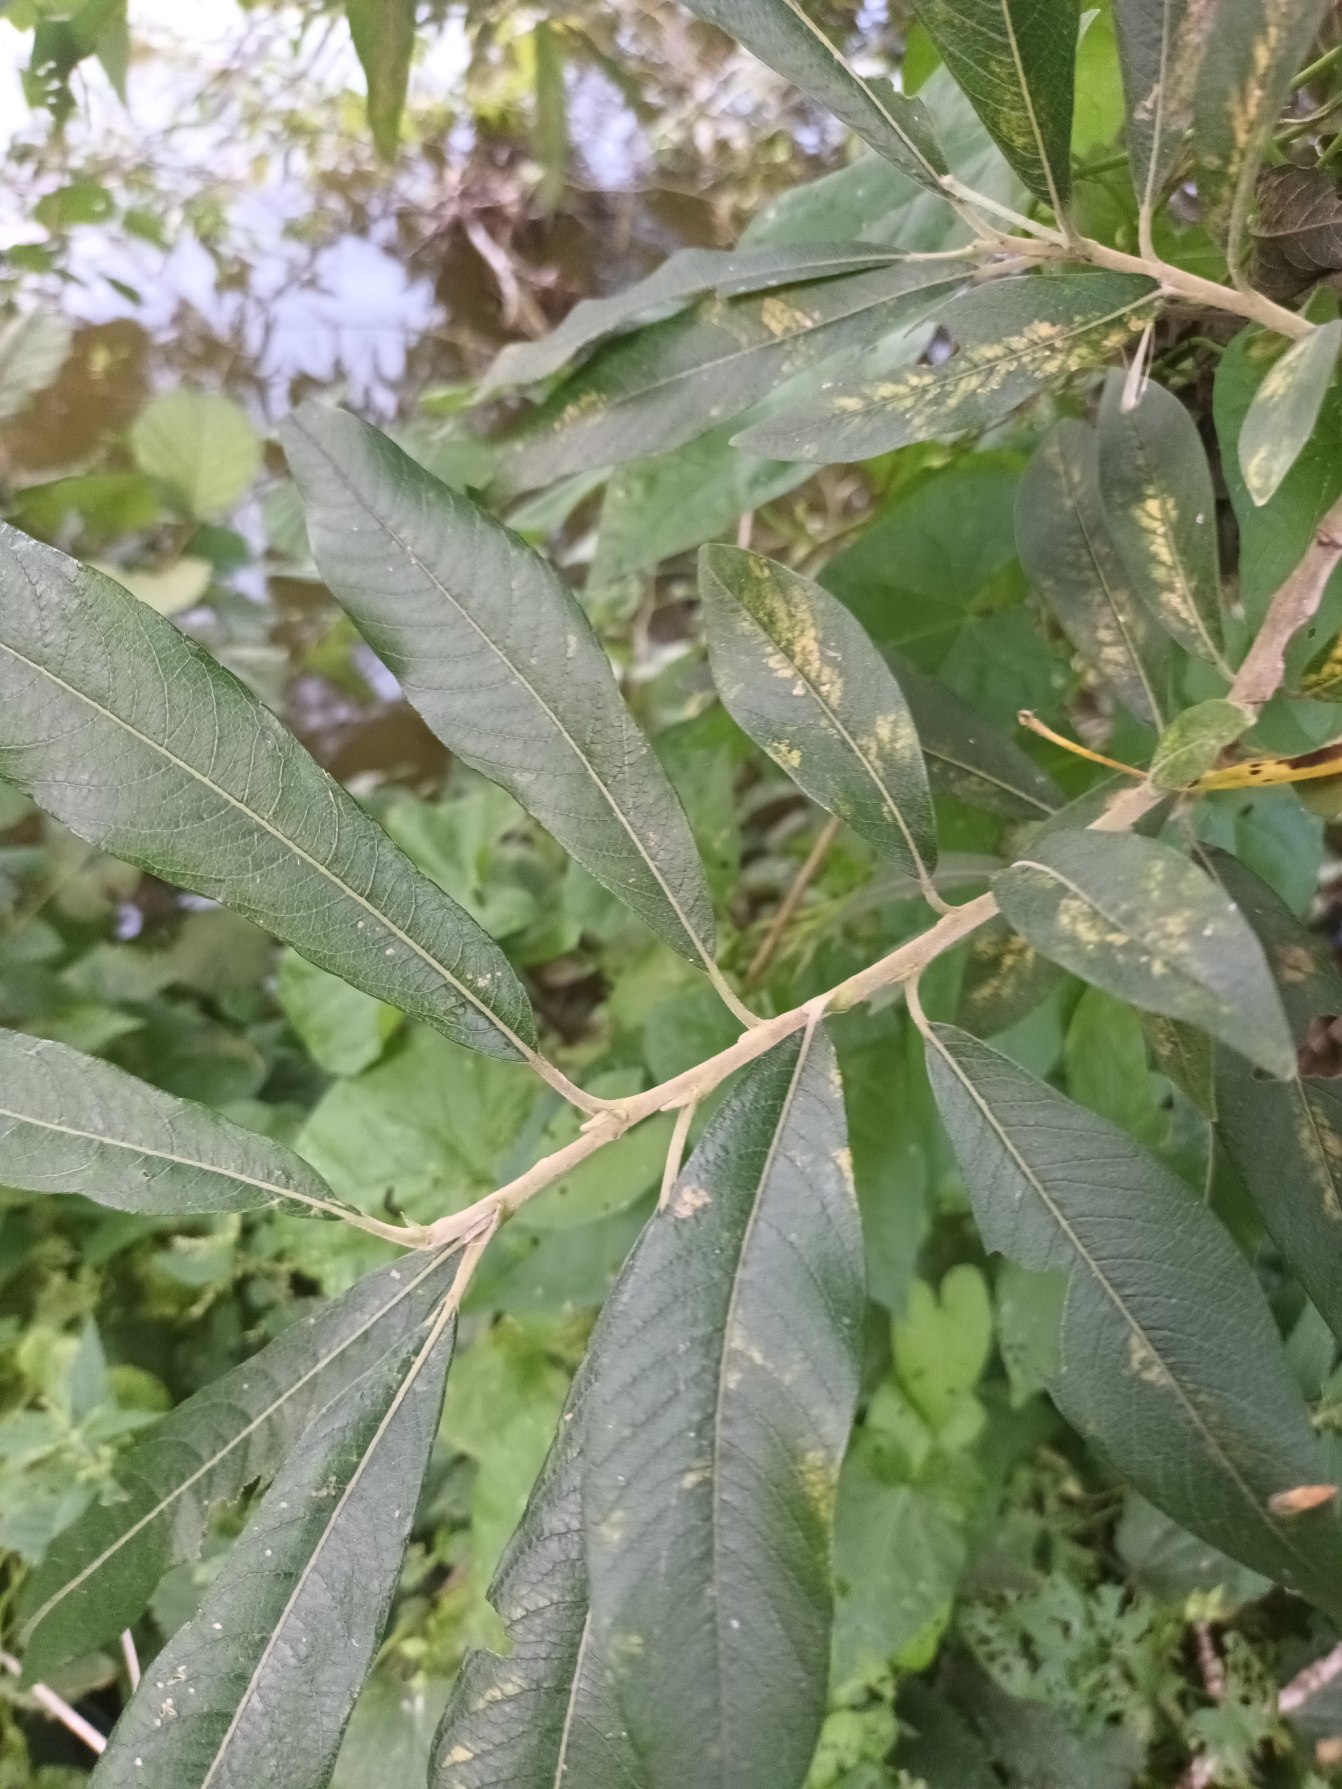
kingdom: Plantae
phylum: Tracheophyta
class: Magnoliopsida
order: Malpighiales
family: Salicaceae
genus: Salix
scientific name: Salix gmelinii
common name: Lådden pil
